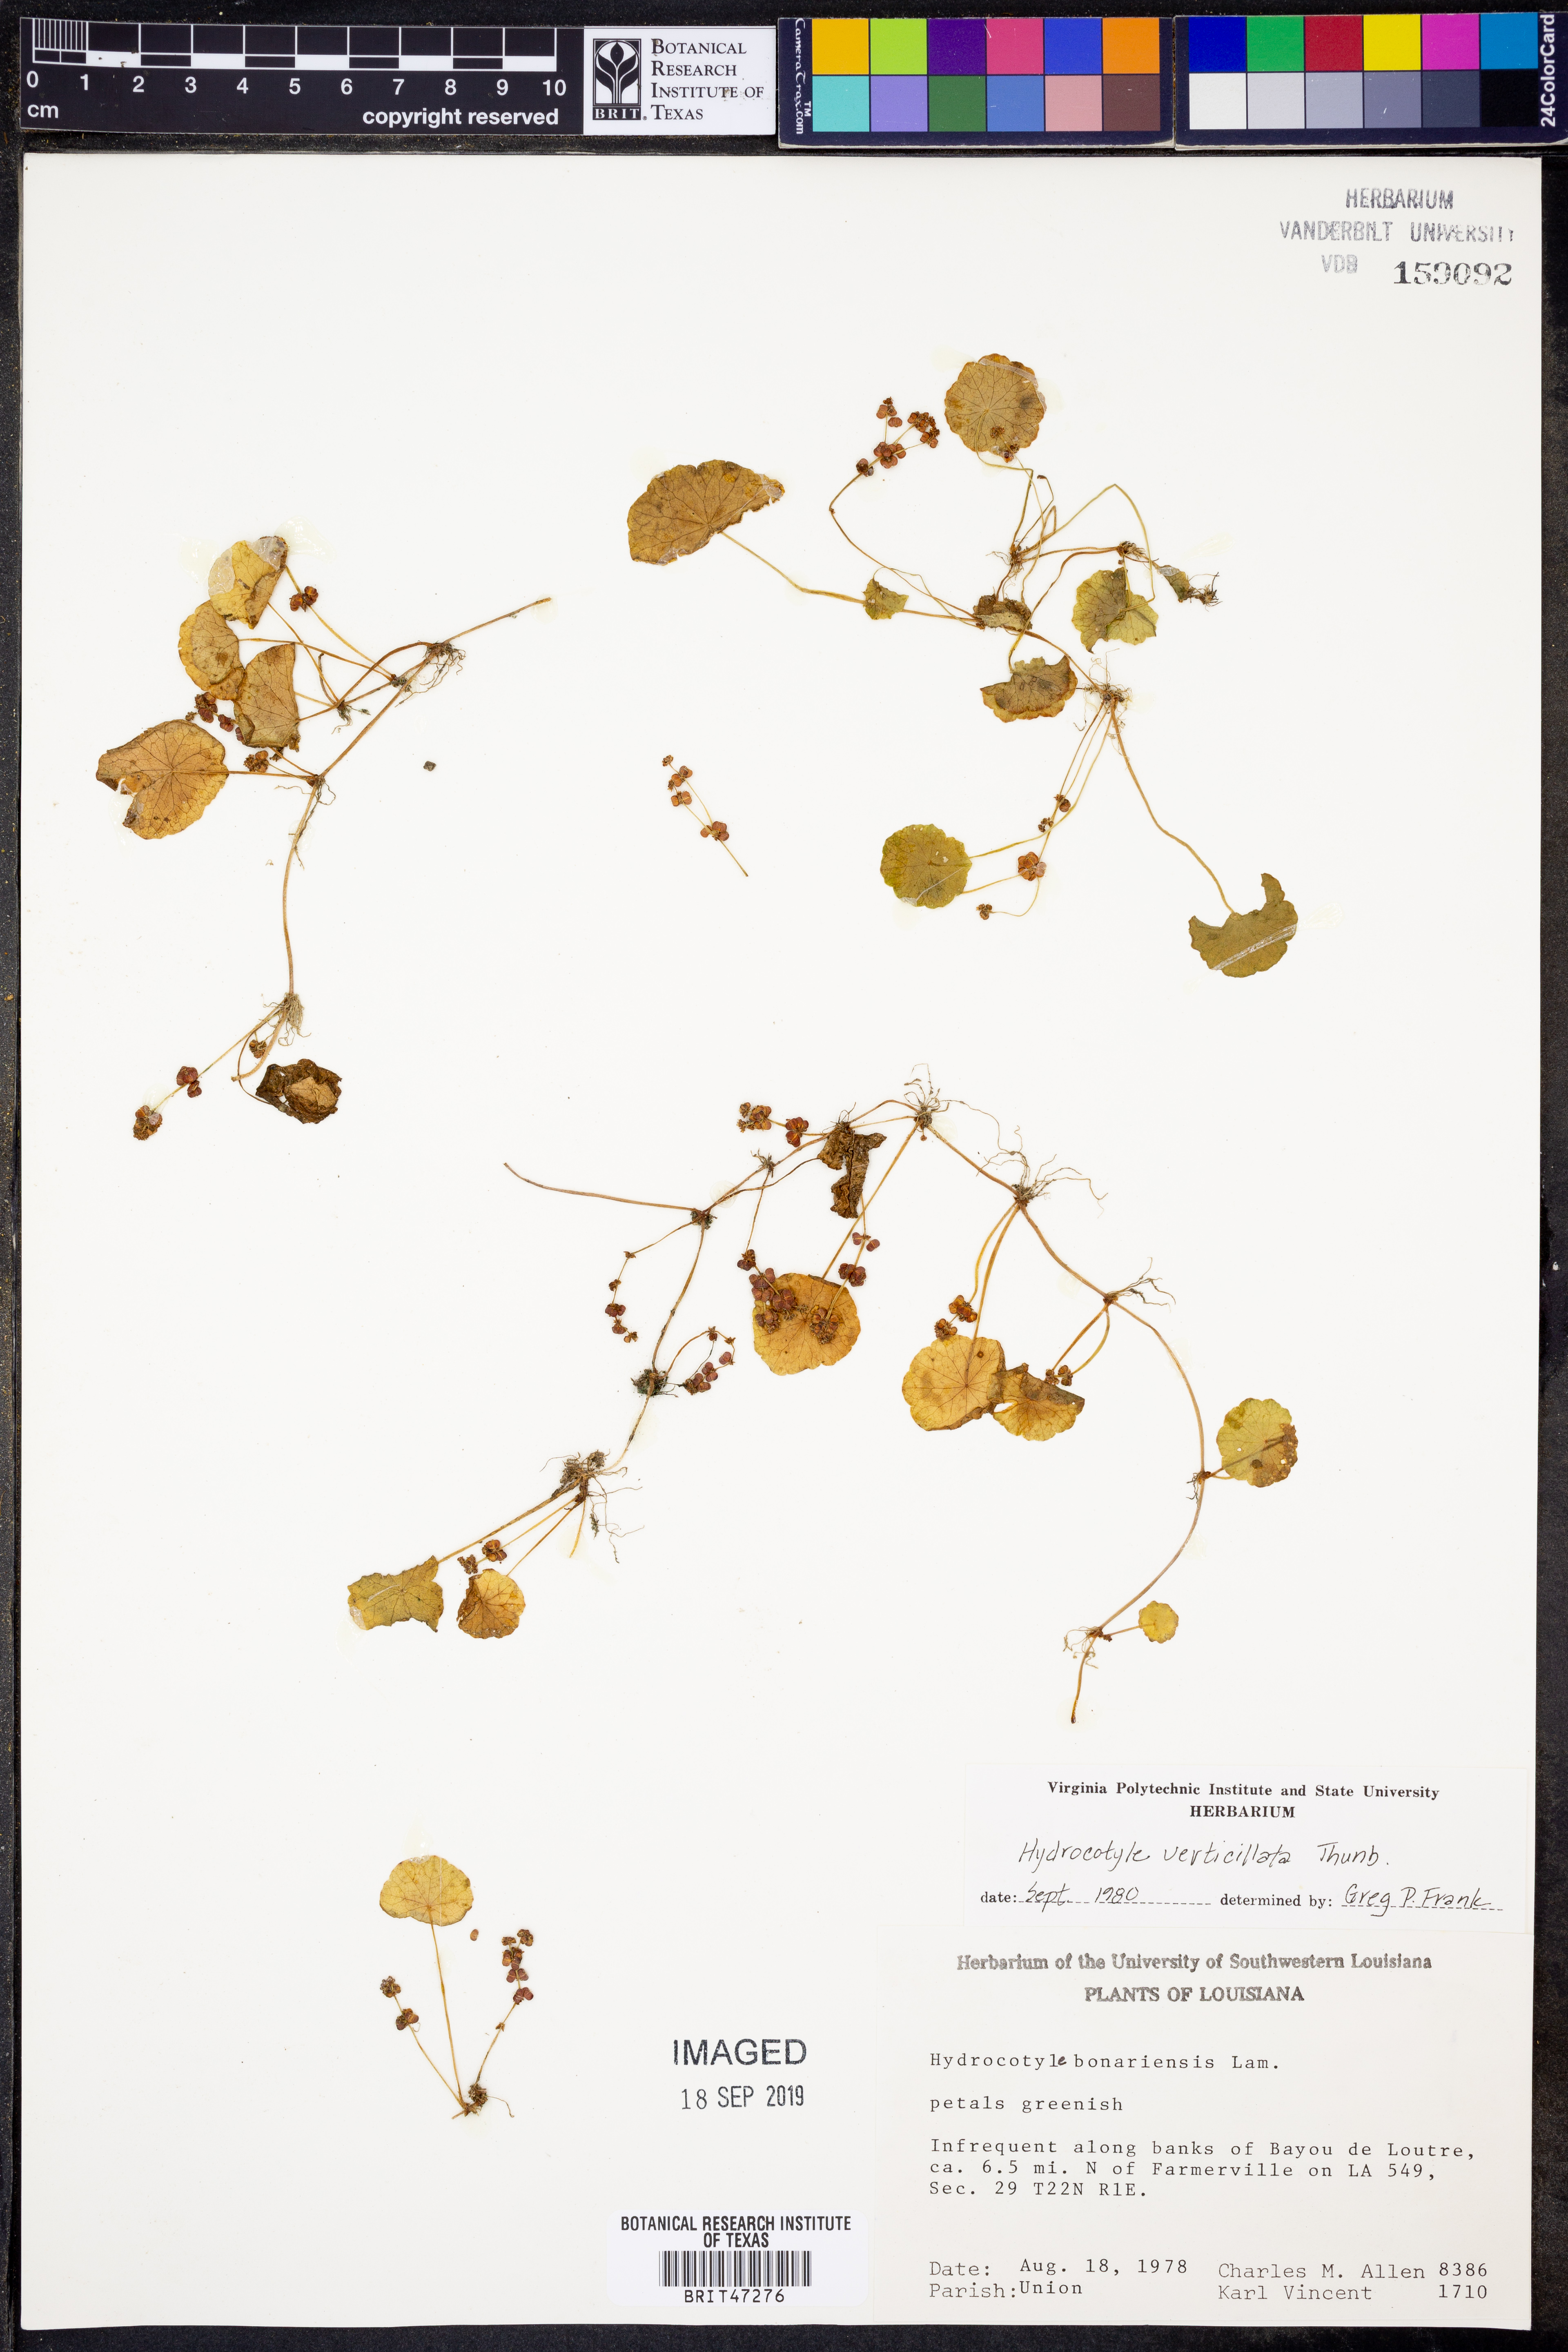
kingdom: Plantae
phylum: Tracheophyta
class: Magnoliopsida
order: Apiales
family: Araliaceae
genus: Hydrocotyle
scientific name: Hydrocotyle verticillata
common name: Whorled marshpennywort
